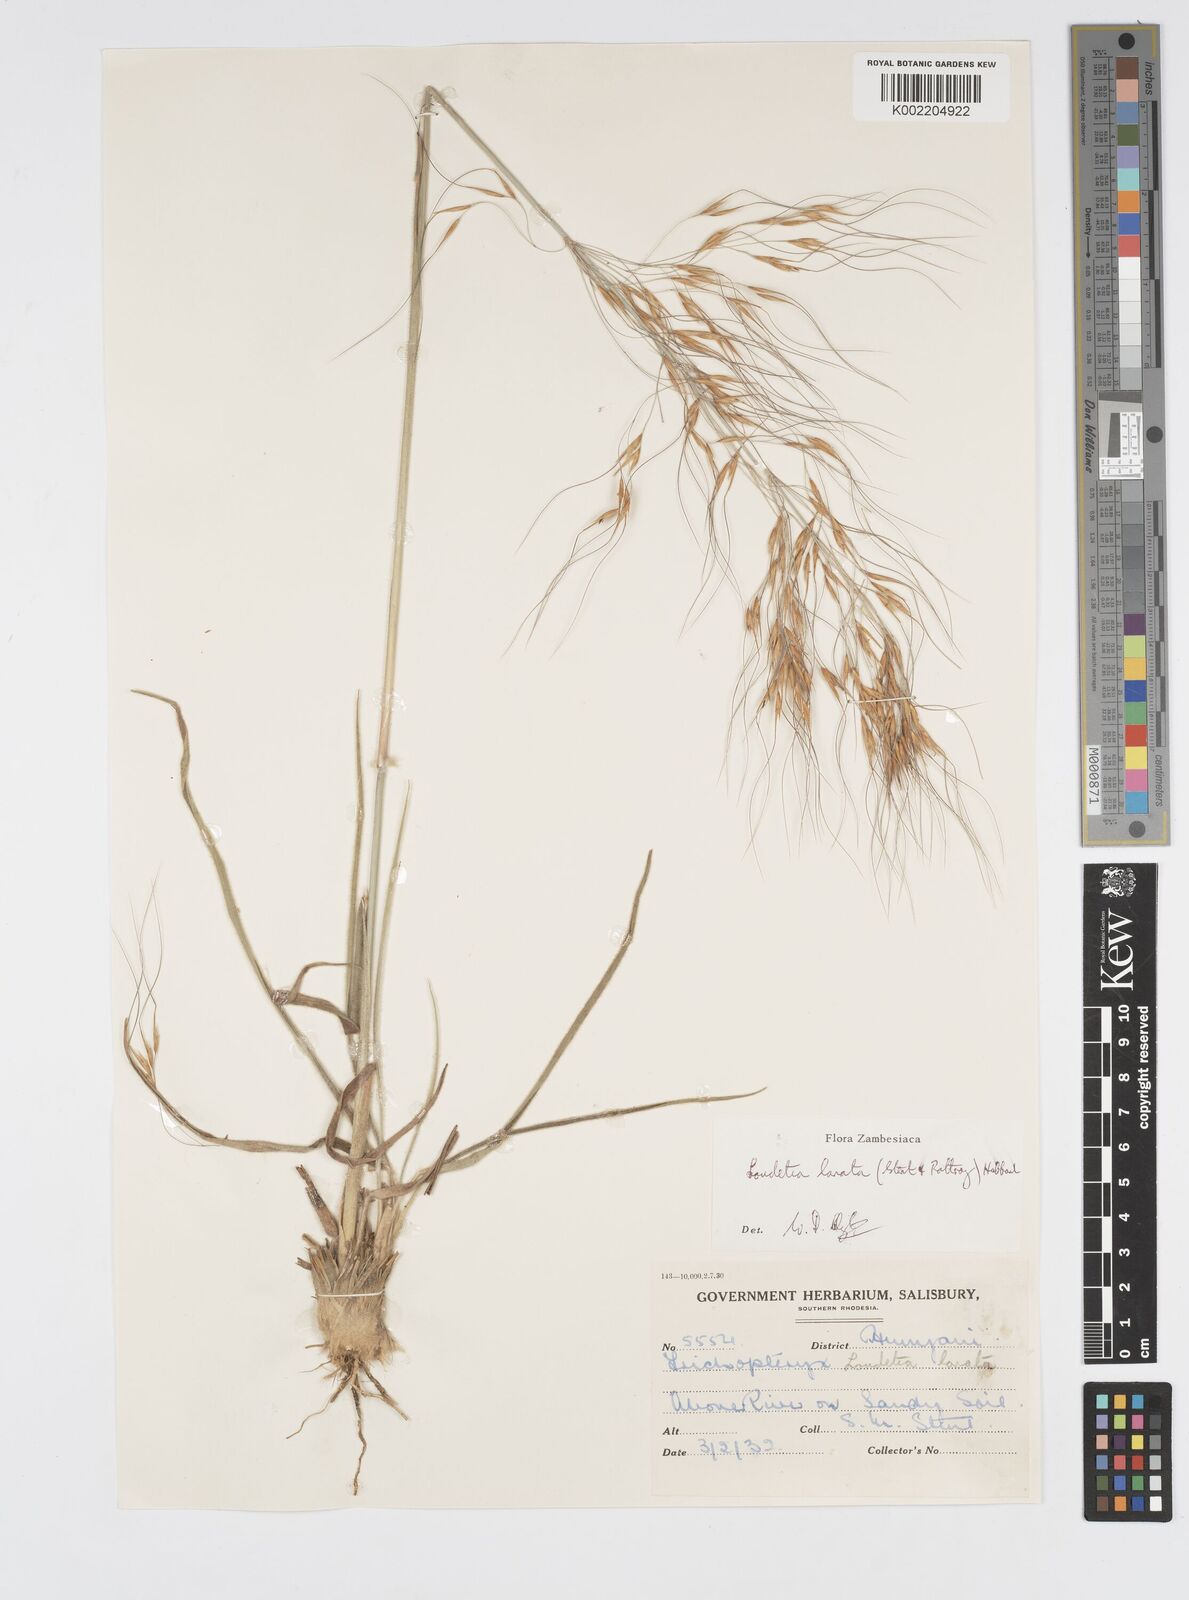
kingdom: Plantae
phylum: Tracheophyta
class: Liliopsida
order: Poales
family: Poaceae
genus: Loudetia
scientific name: Loudetia lanata
